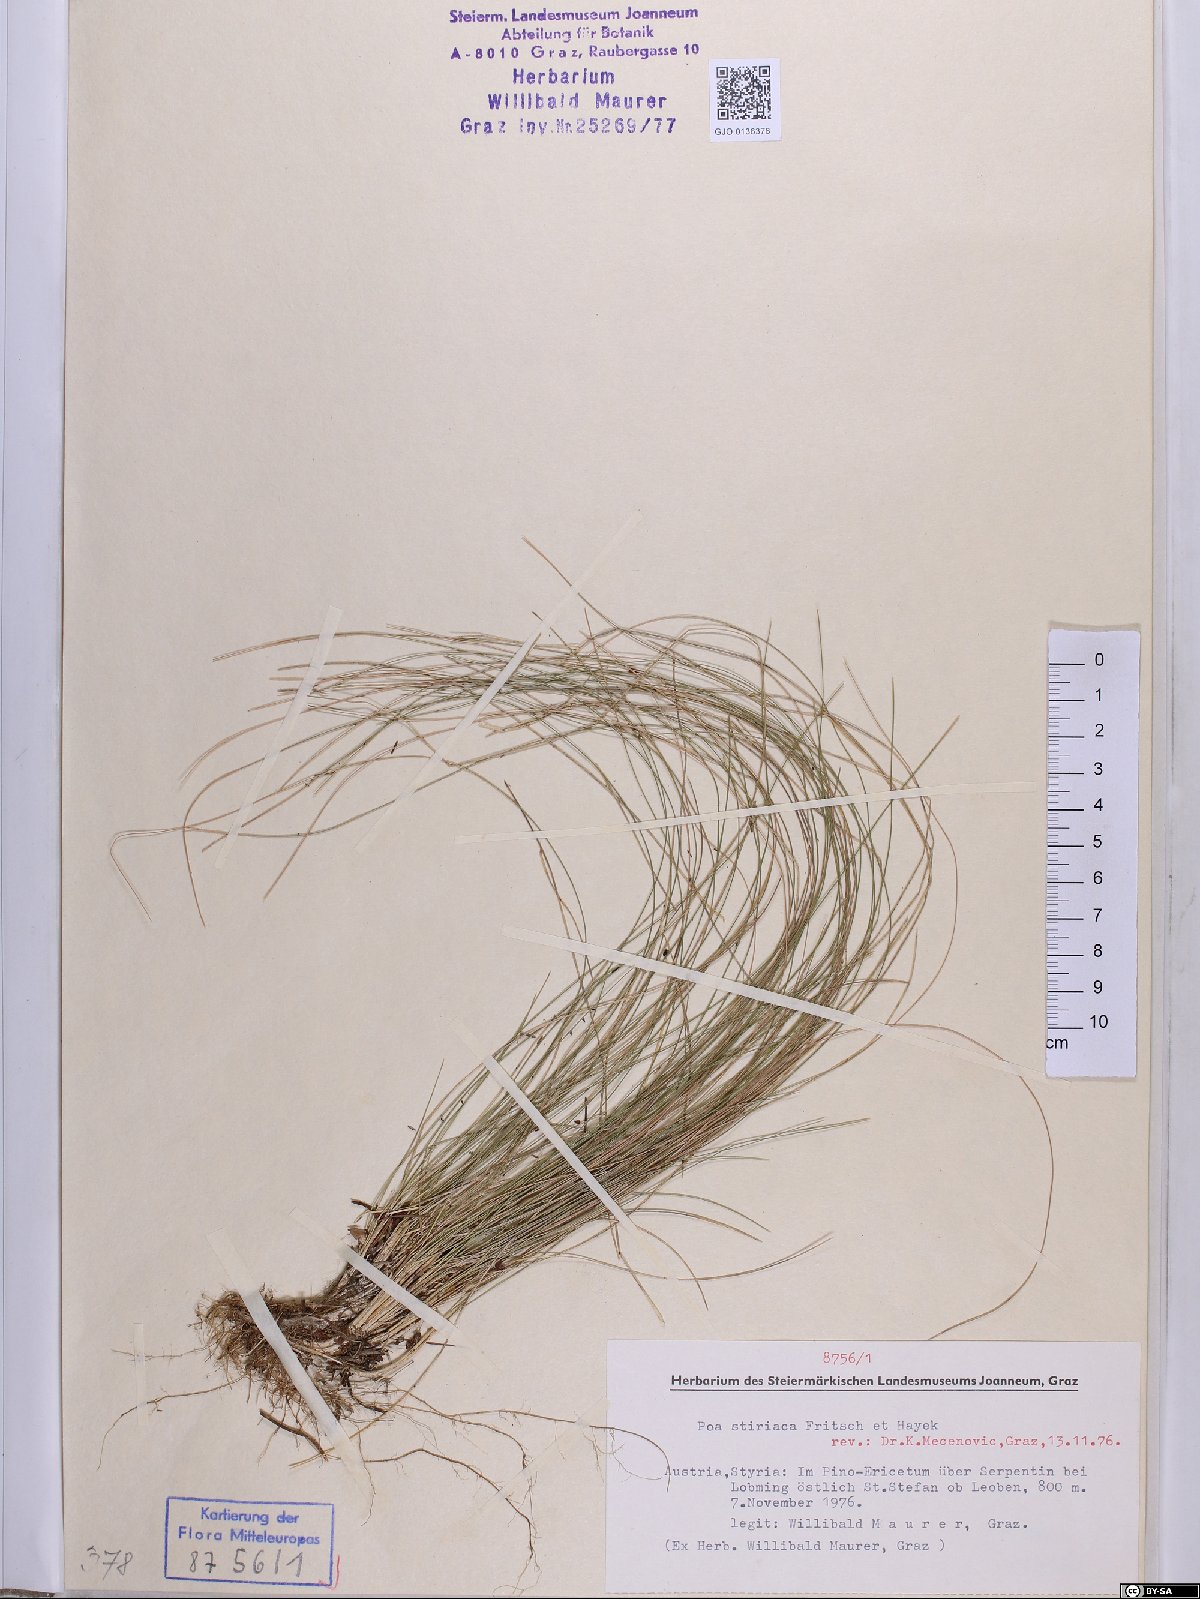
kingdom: Plantae
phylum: Tracheophyta
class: Liliopsida
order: Poales
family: Poaceae
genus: Poa
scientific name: Poa stiriaca
